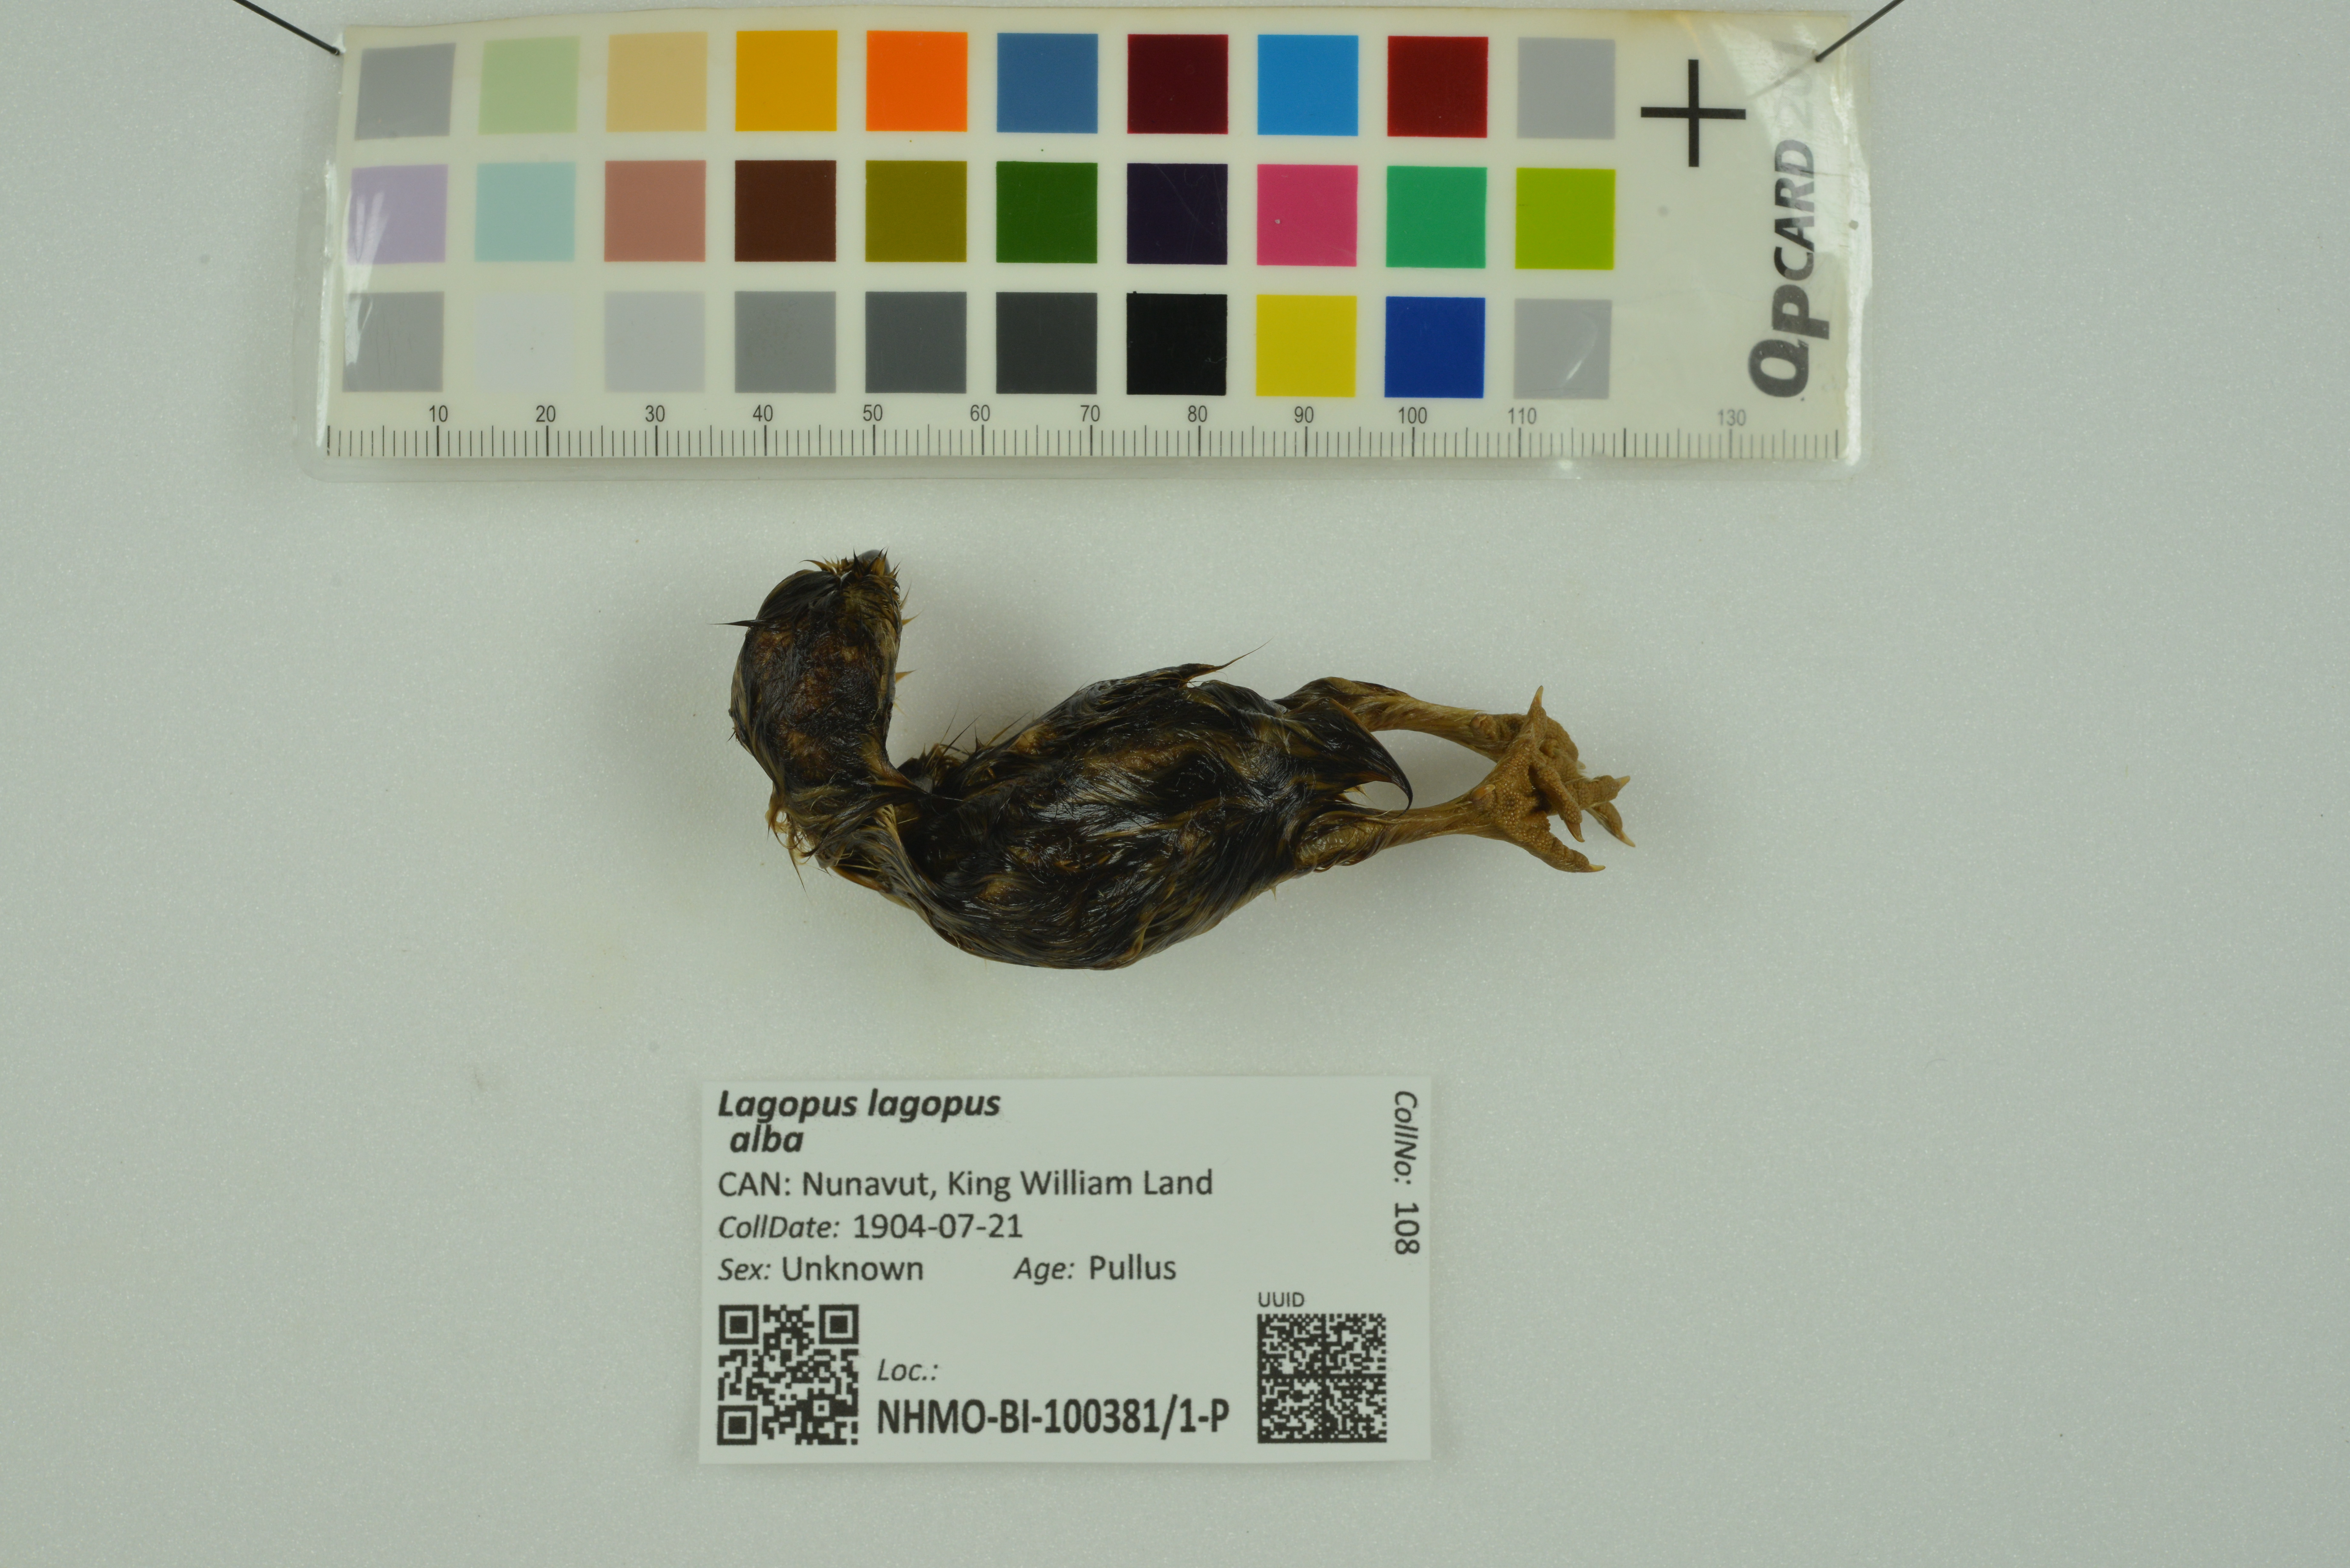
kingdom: Animalia
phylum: Chordata
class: Aves
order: Galliformes
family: Phasianidae
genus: Lagopus
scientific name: Lagopus lagopus
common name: Willow ptarmigan
